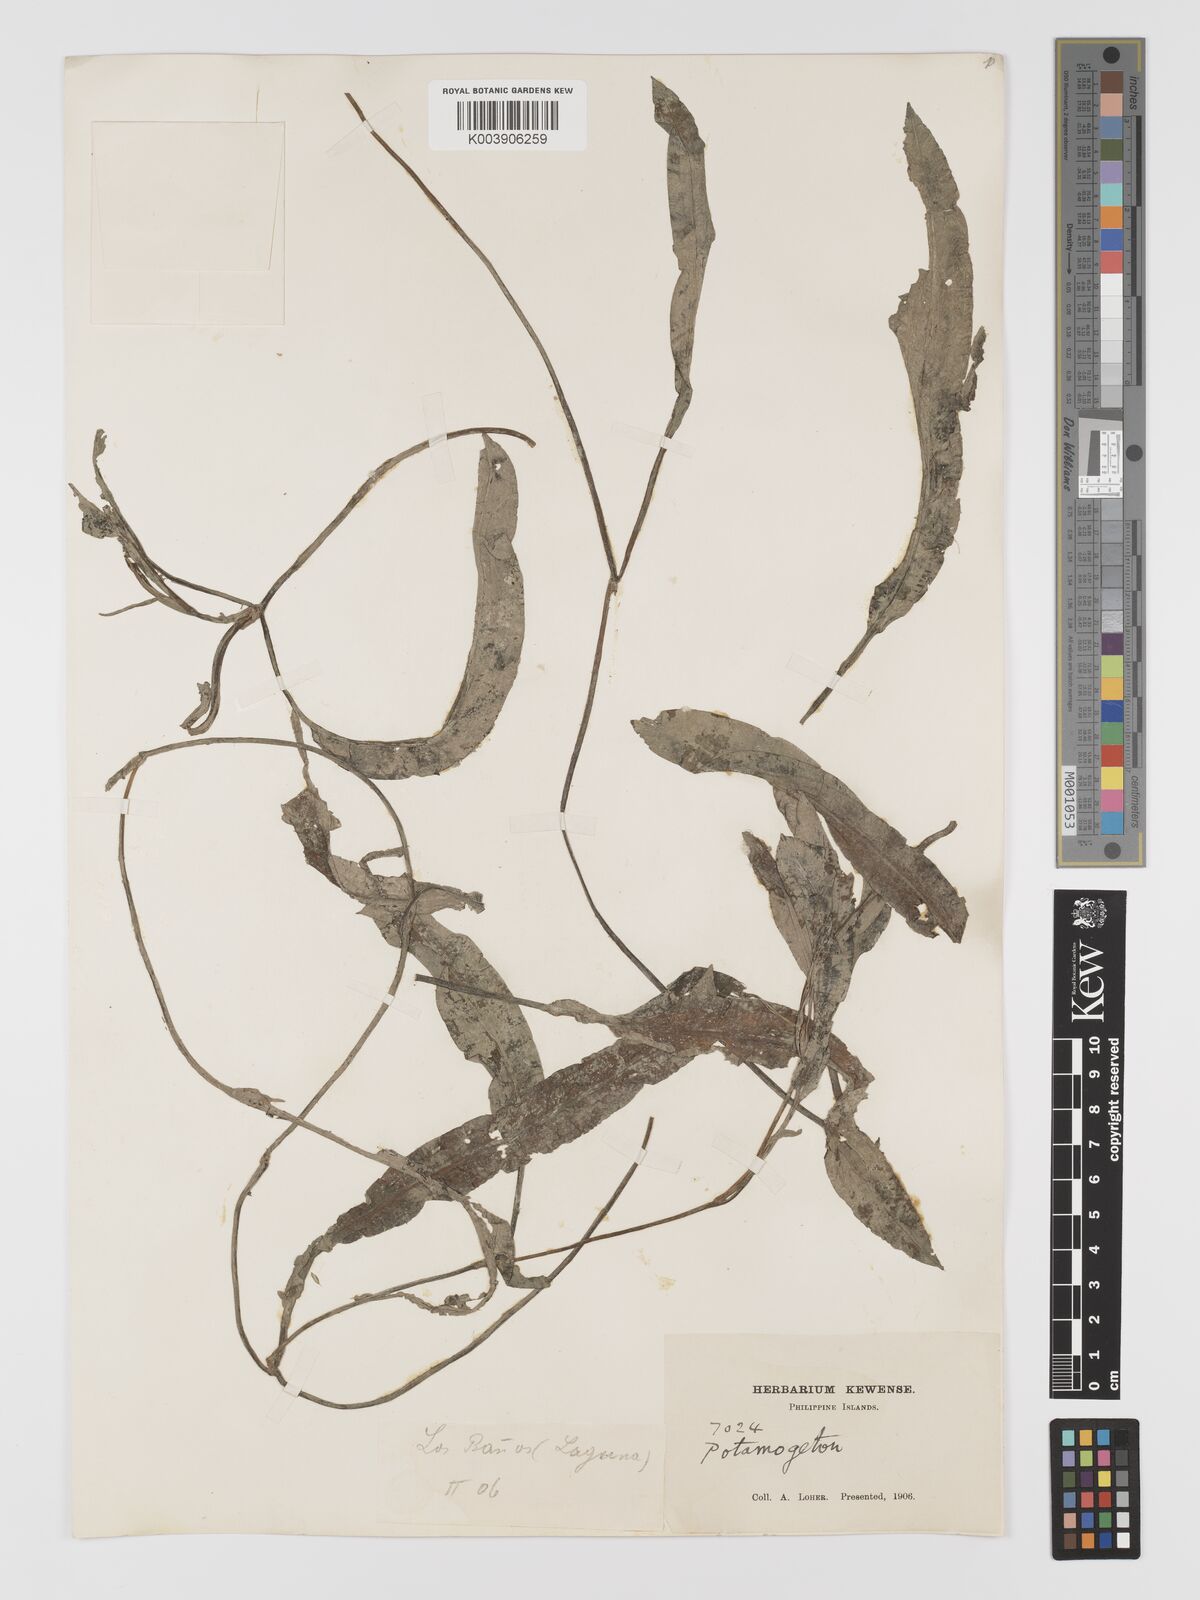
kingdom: Plantae
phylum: Tracheophyta
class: Liliopsida
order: Alismatales
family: Potamogetonaceae
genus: Potamogeton
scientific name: Potamogeton wrightii
